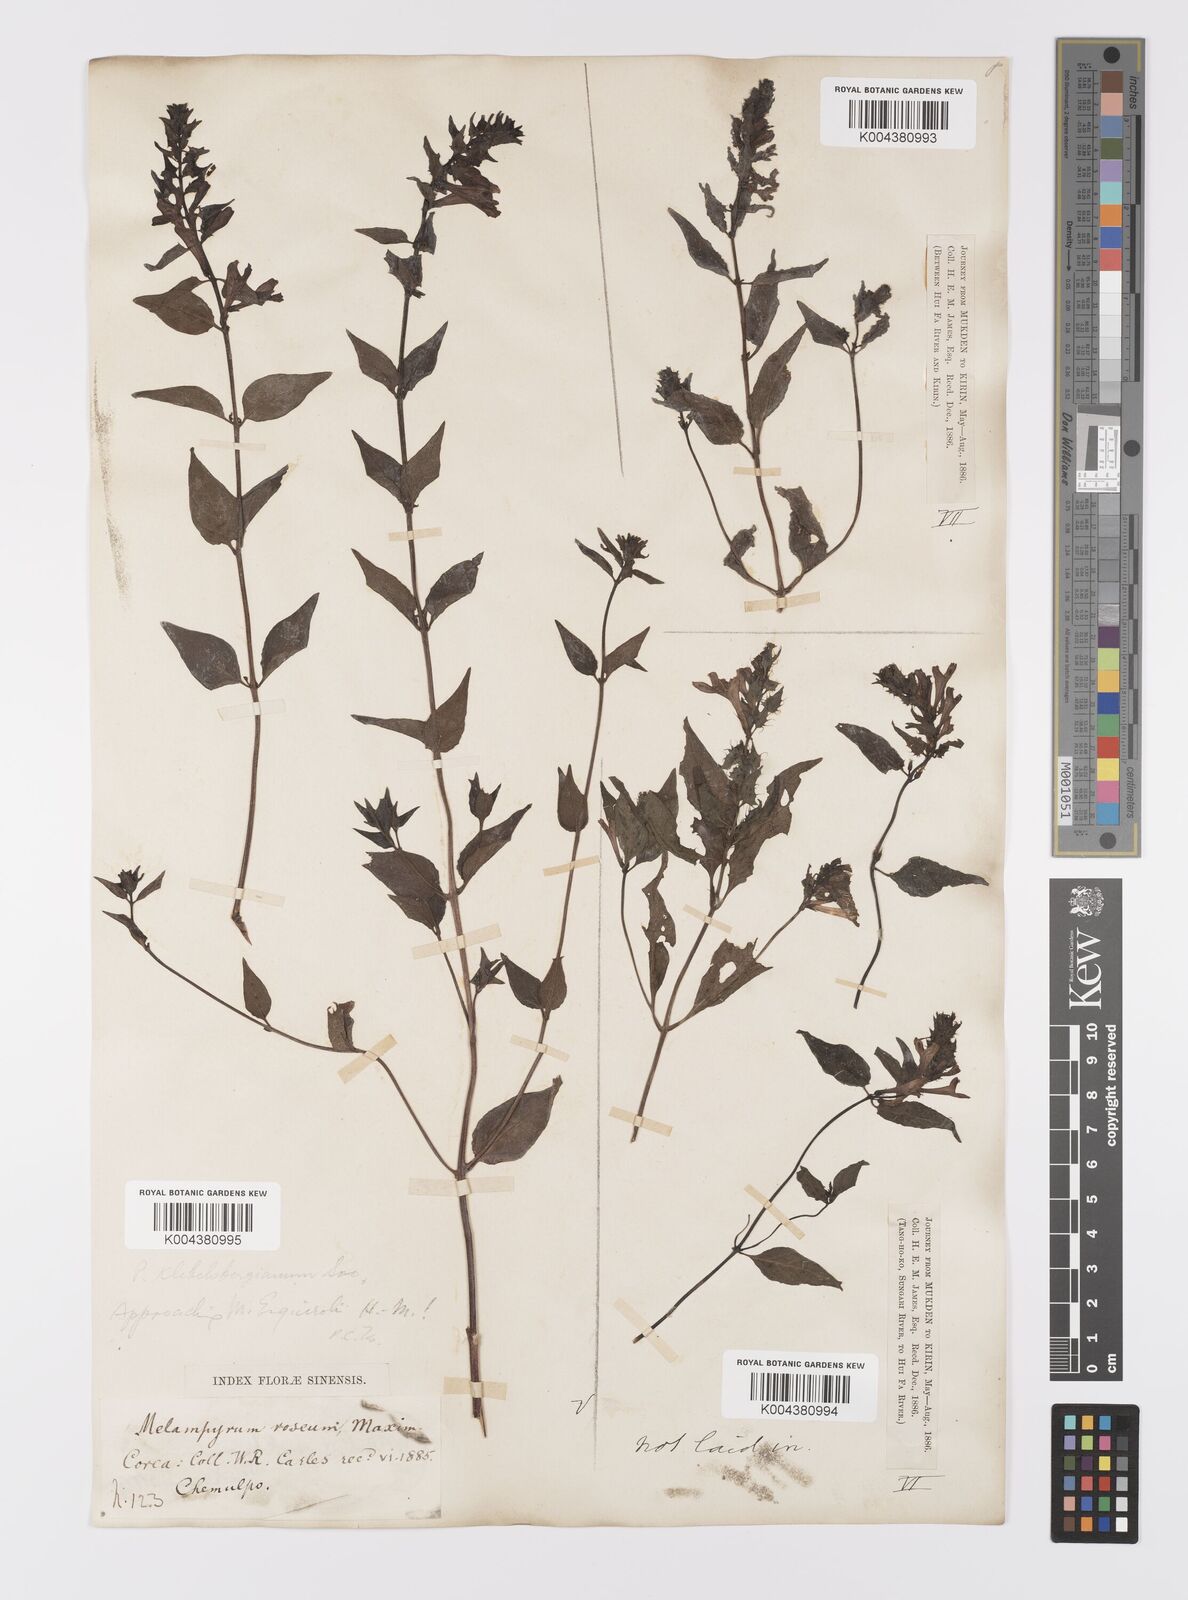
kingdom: Plantae
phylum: Tracheophyta
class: Magnoliopsida
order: Lamiales
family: Orobanchaceae
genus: Melampyrum
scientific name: Melampyrum roseum
